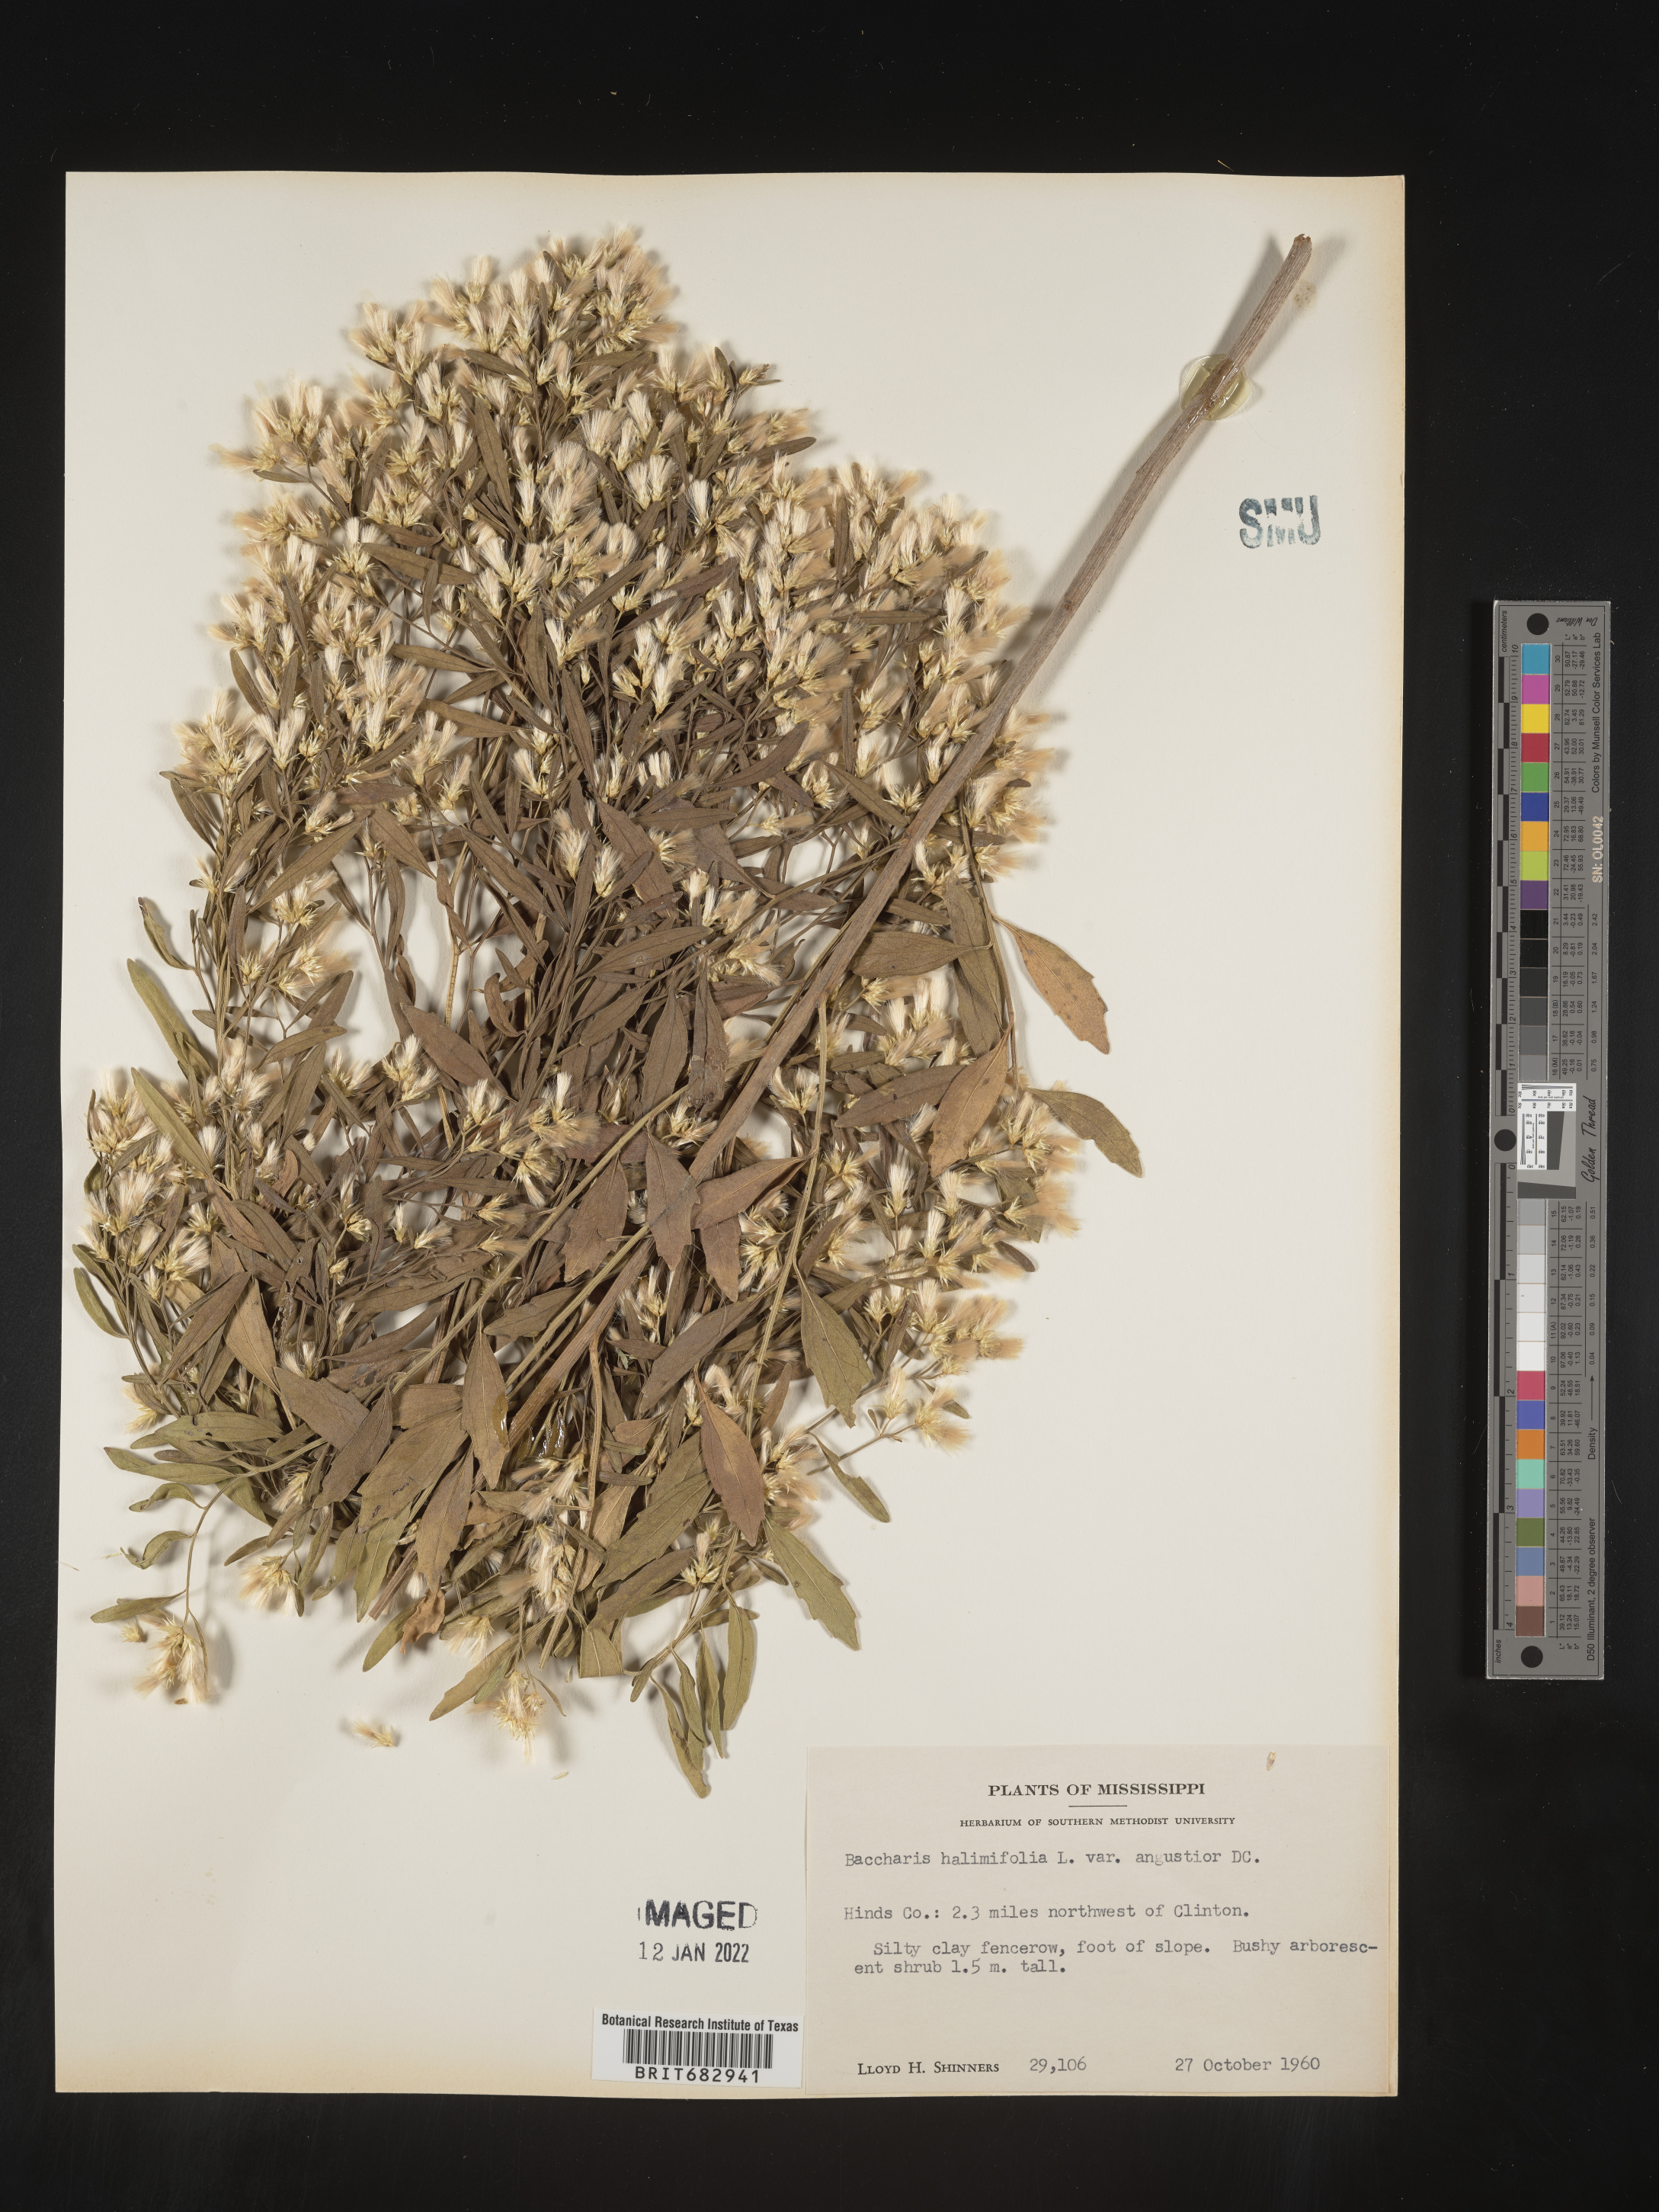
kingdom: Plantae
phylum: Tracheophyta
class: Magnoliopsida
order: Asterales
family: Asteraceae
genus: Nidorella
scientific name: Nidorella ivifolia
